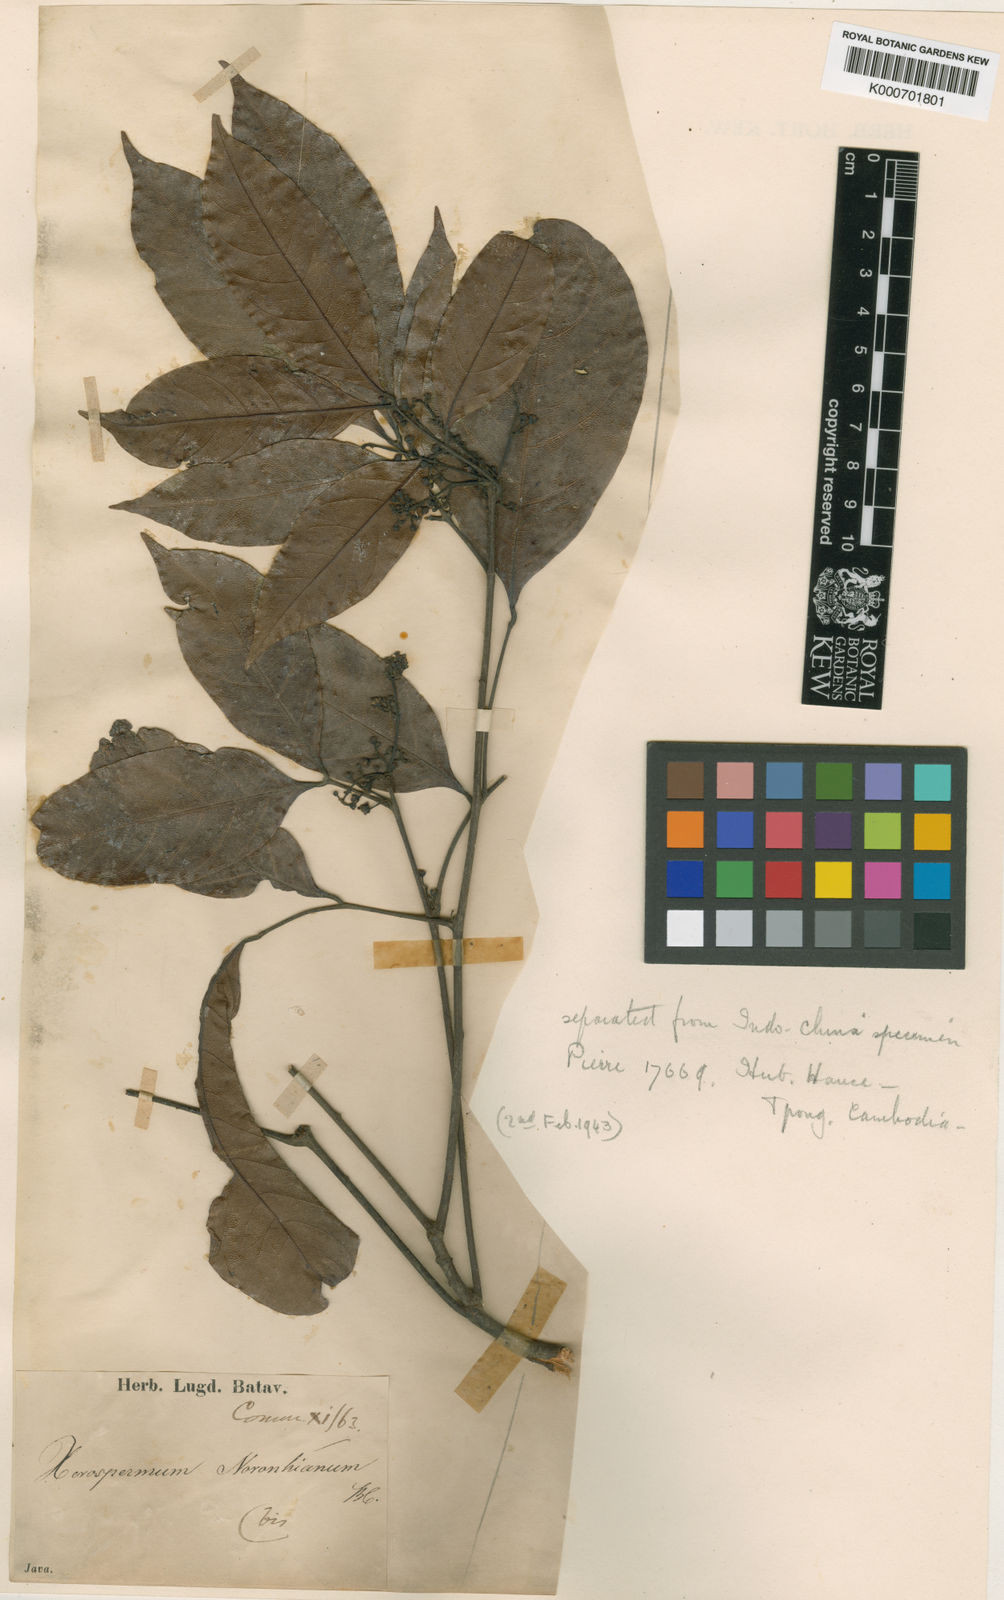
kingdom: Plantae
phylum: Tracheophyta
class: Magnoliopsida
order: Sapindales
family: Sapindaceae
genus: Xerospermum
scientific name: Xerospermum noronhianum
